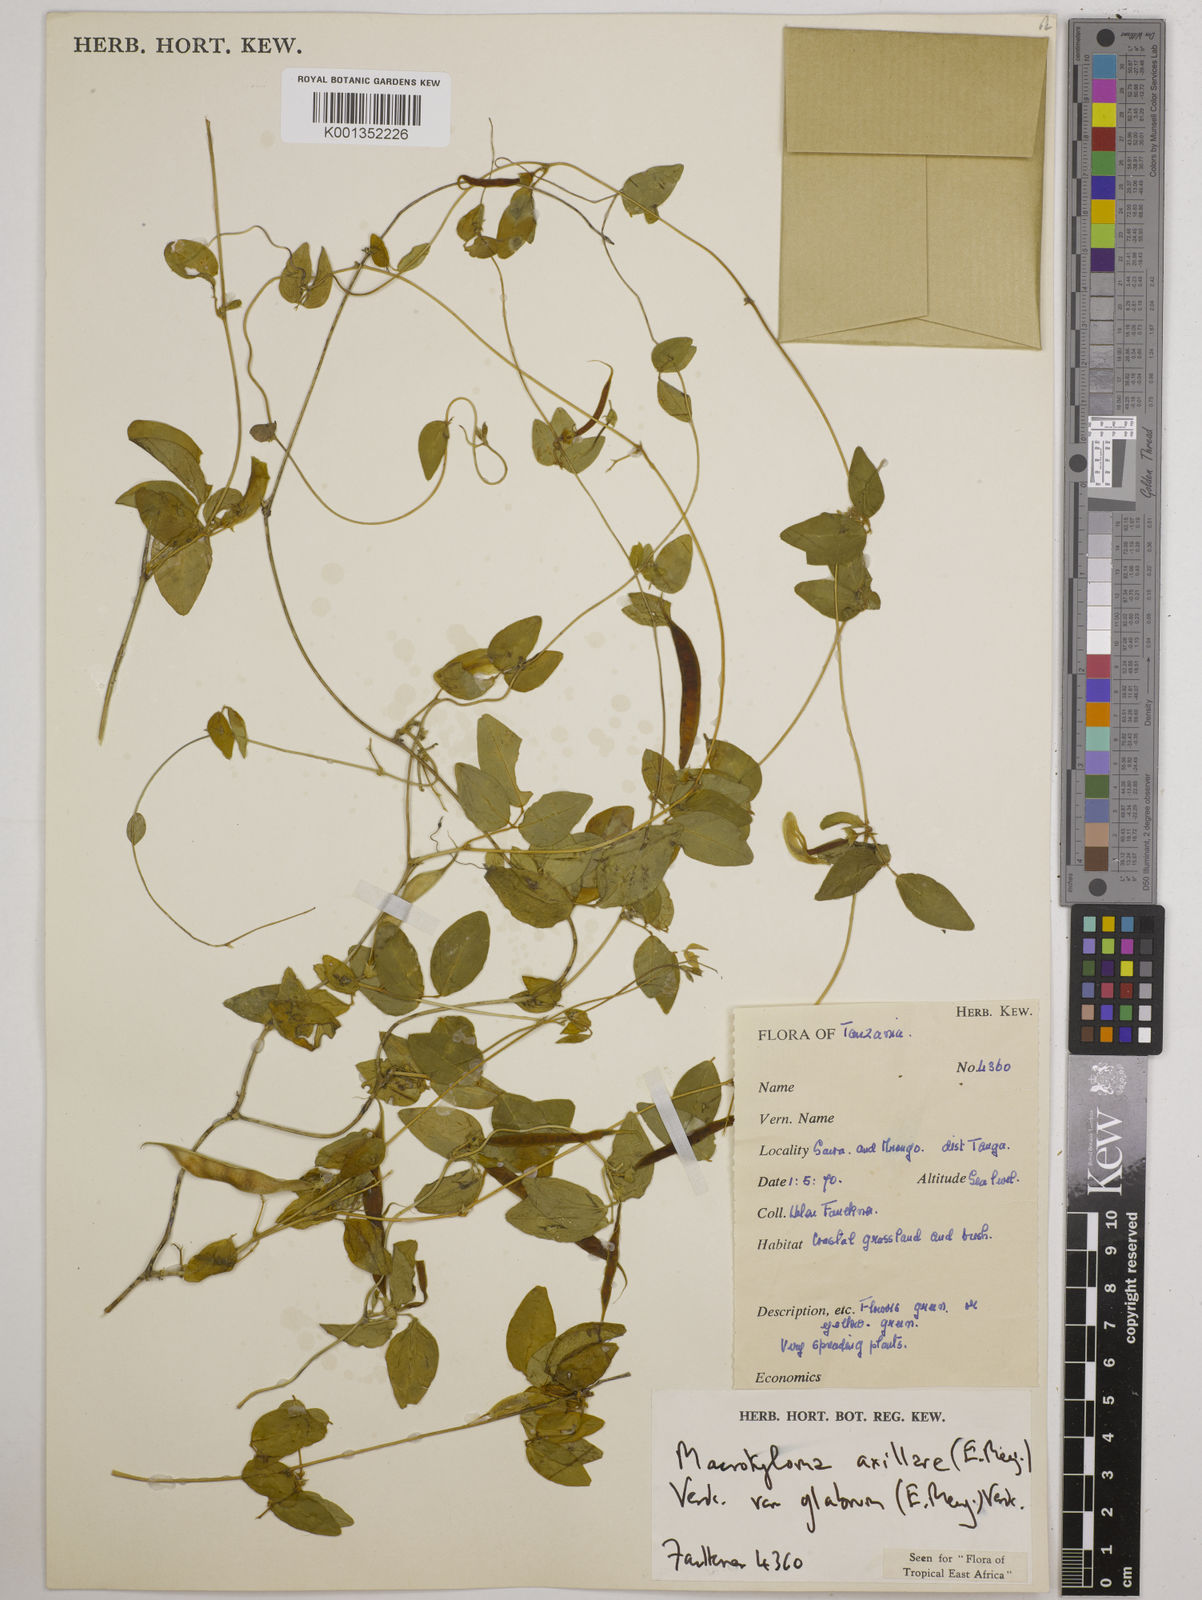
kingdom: Plantae
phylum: Tracheophyta
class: Magnoliopsida
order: Fabales
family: Fabaceae
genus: Macrotyloma
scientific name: Macrotyloma
